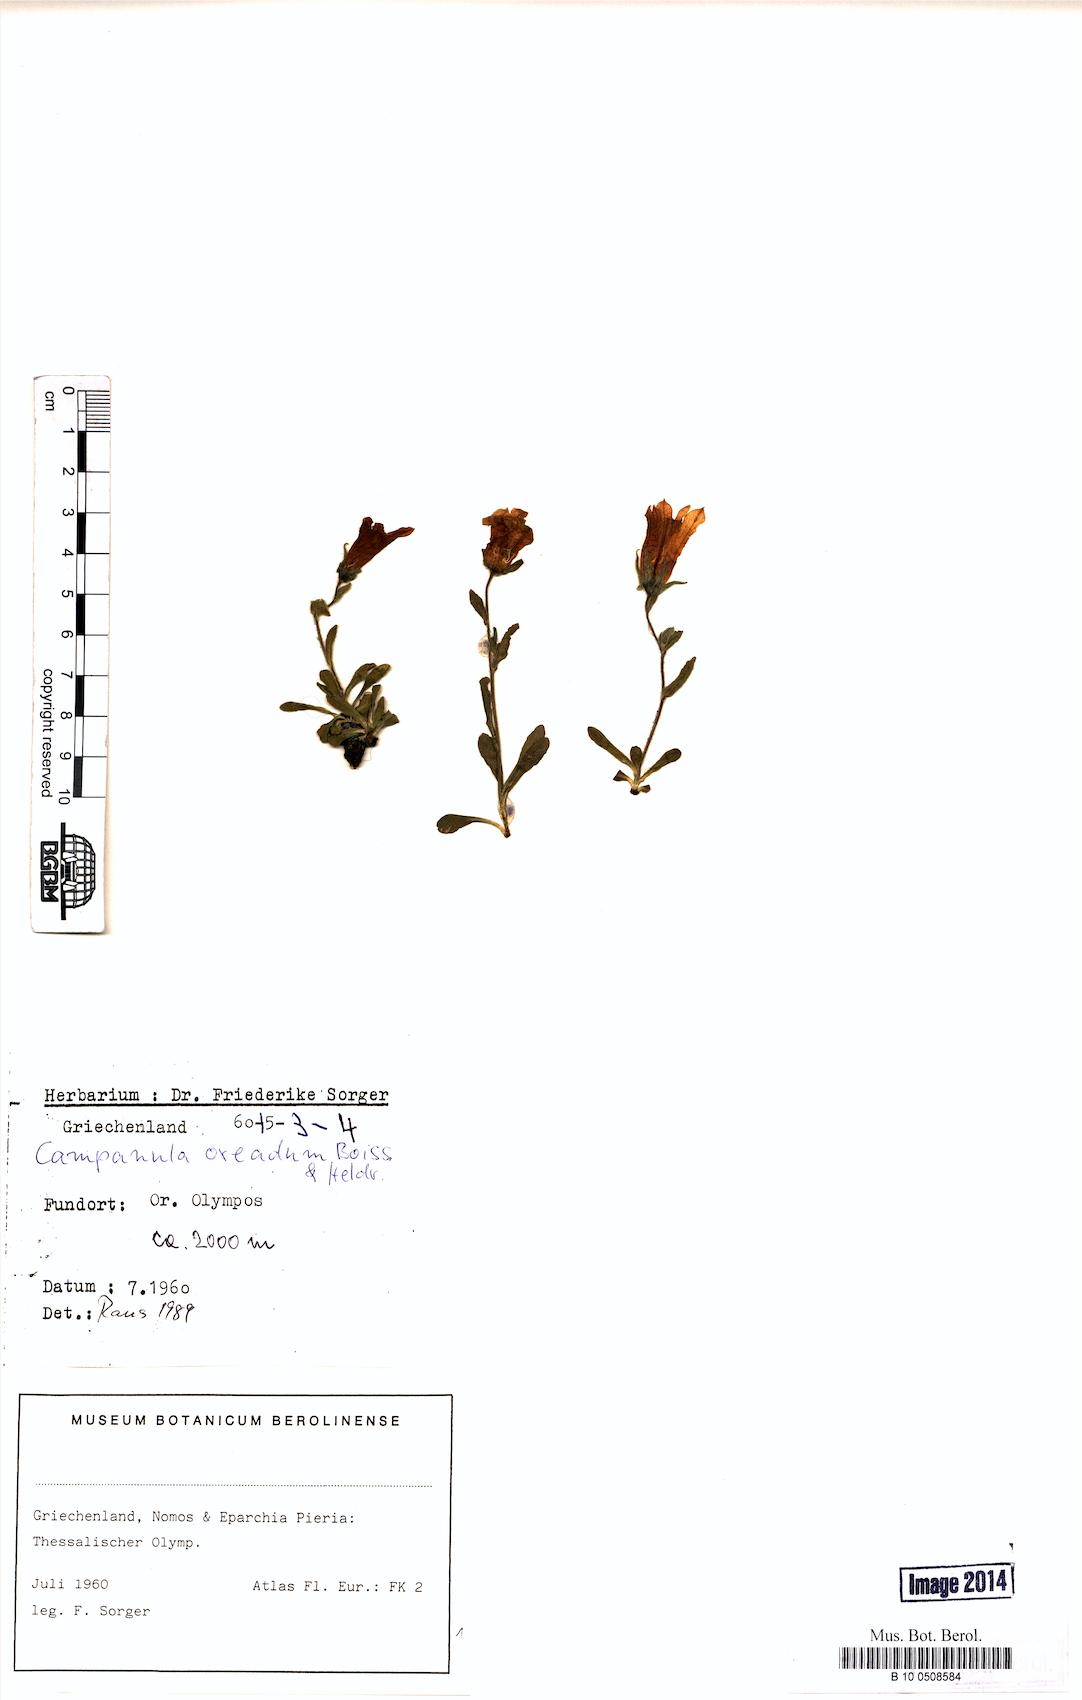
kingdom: Plantae
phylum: Tracheophyta
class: Magnoliopsida
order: Asterales
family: Campanulaceae
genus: Campanula
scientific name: Campanula oreadum
